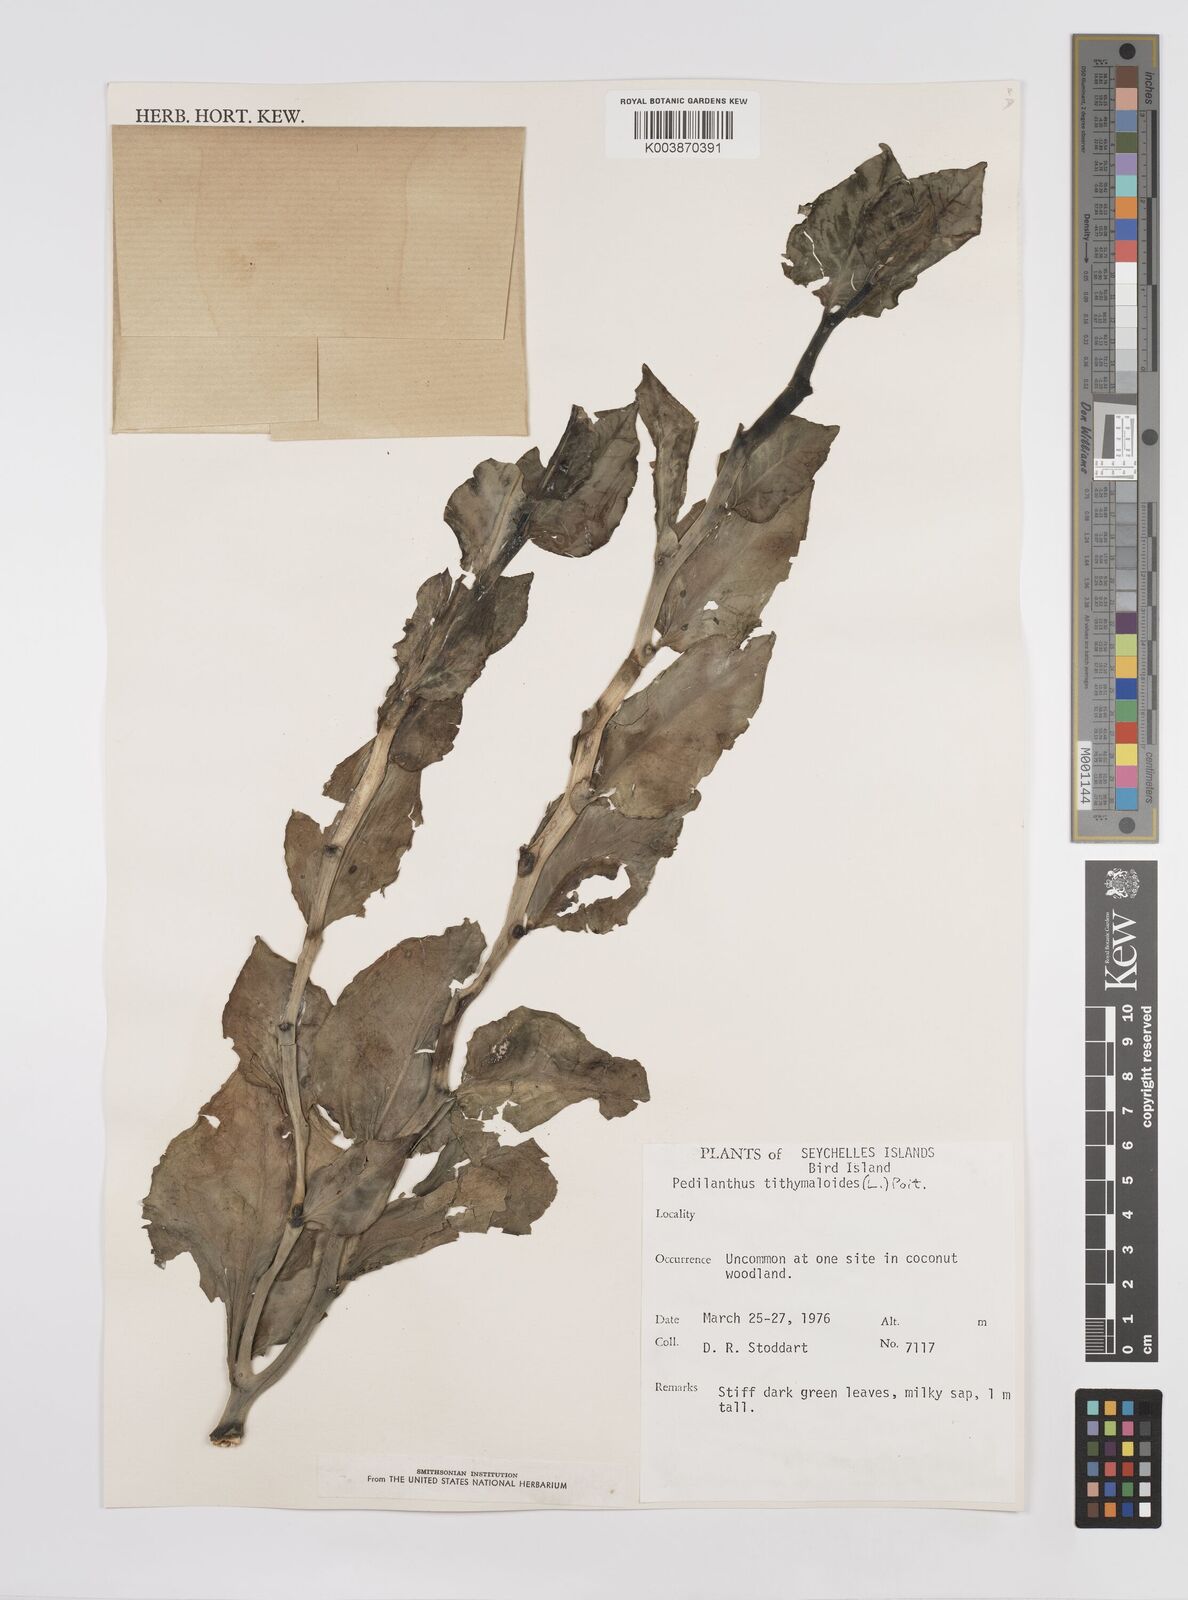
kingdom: Plantae
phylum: Tracheophyta
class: Magnoliopsida
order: Malpighiales
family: Euphorbiaceae
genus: Euphorbia
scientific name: Euphorbia tithymaloides
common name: Slipperplant
